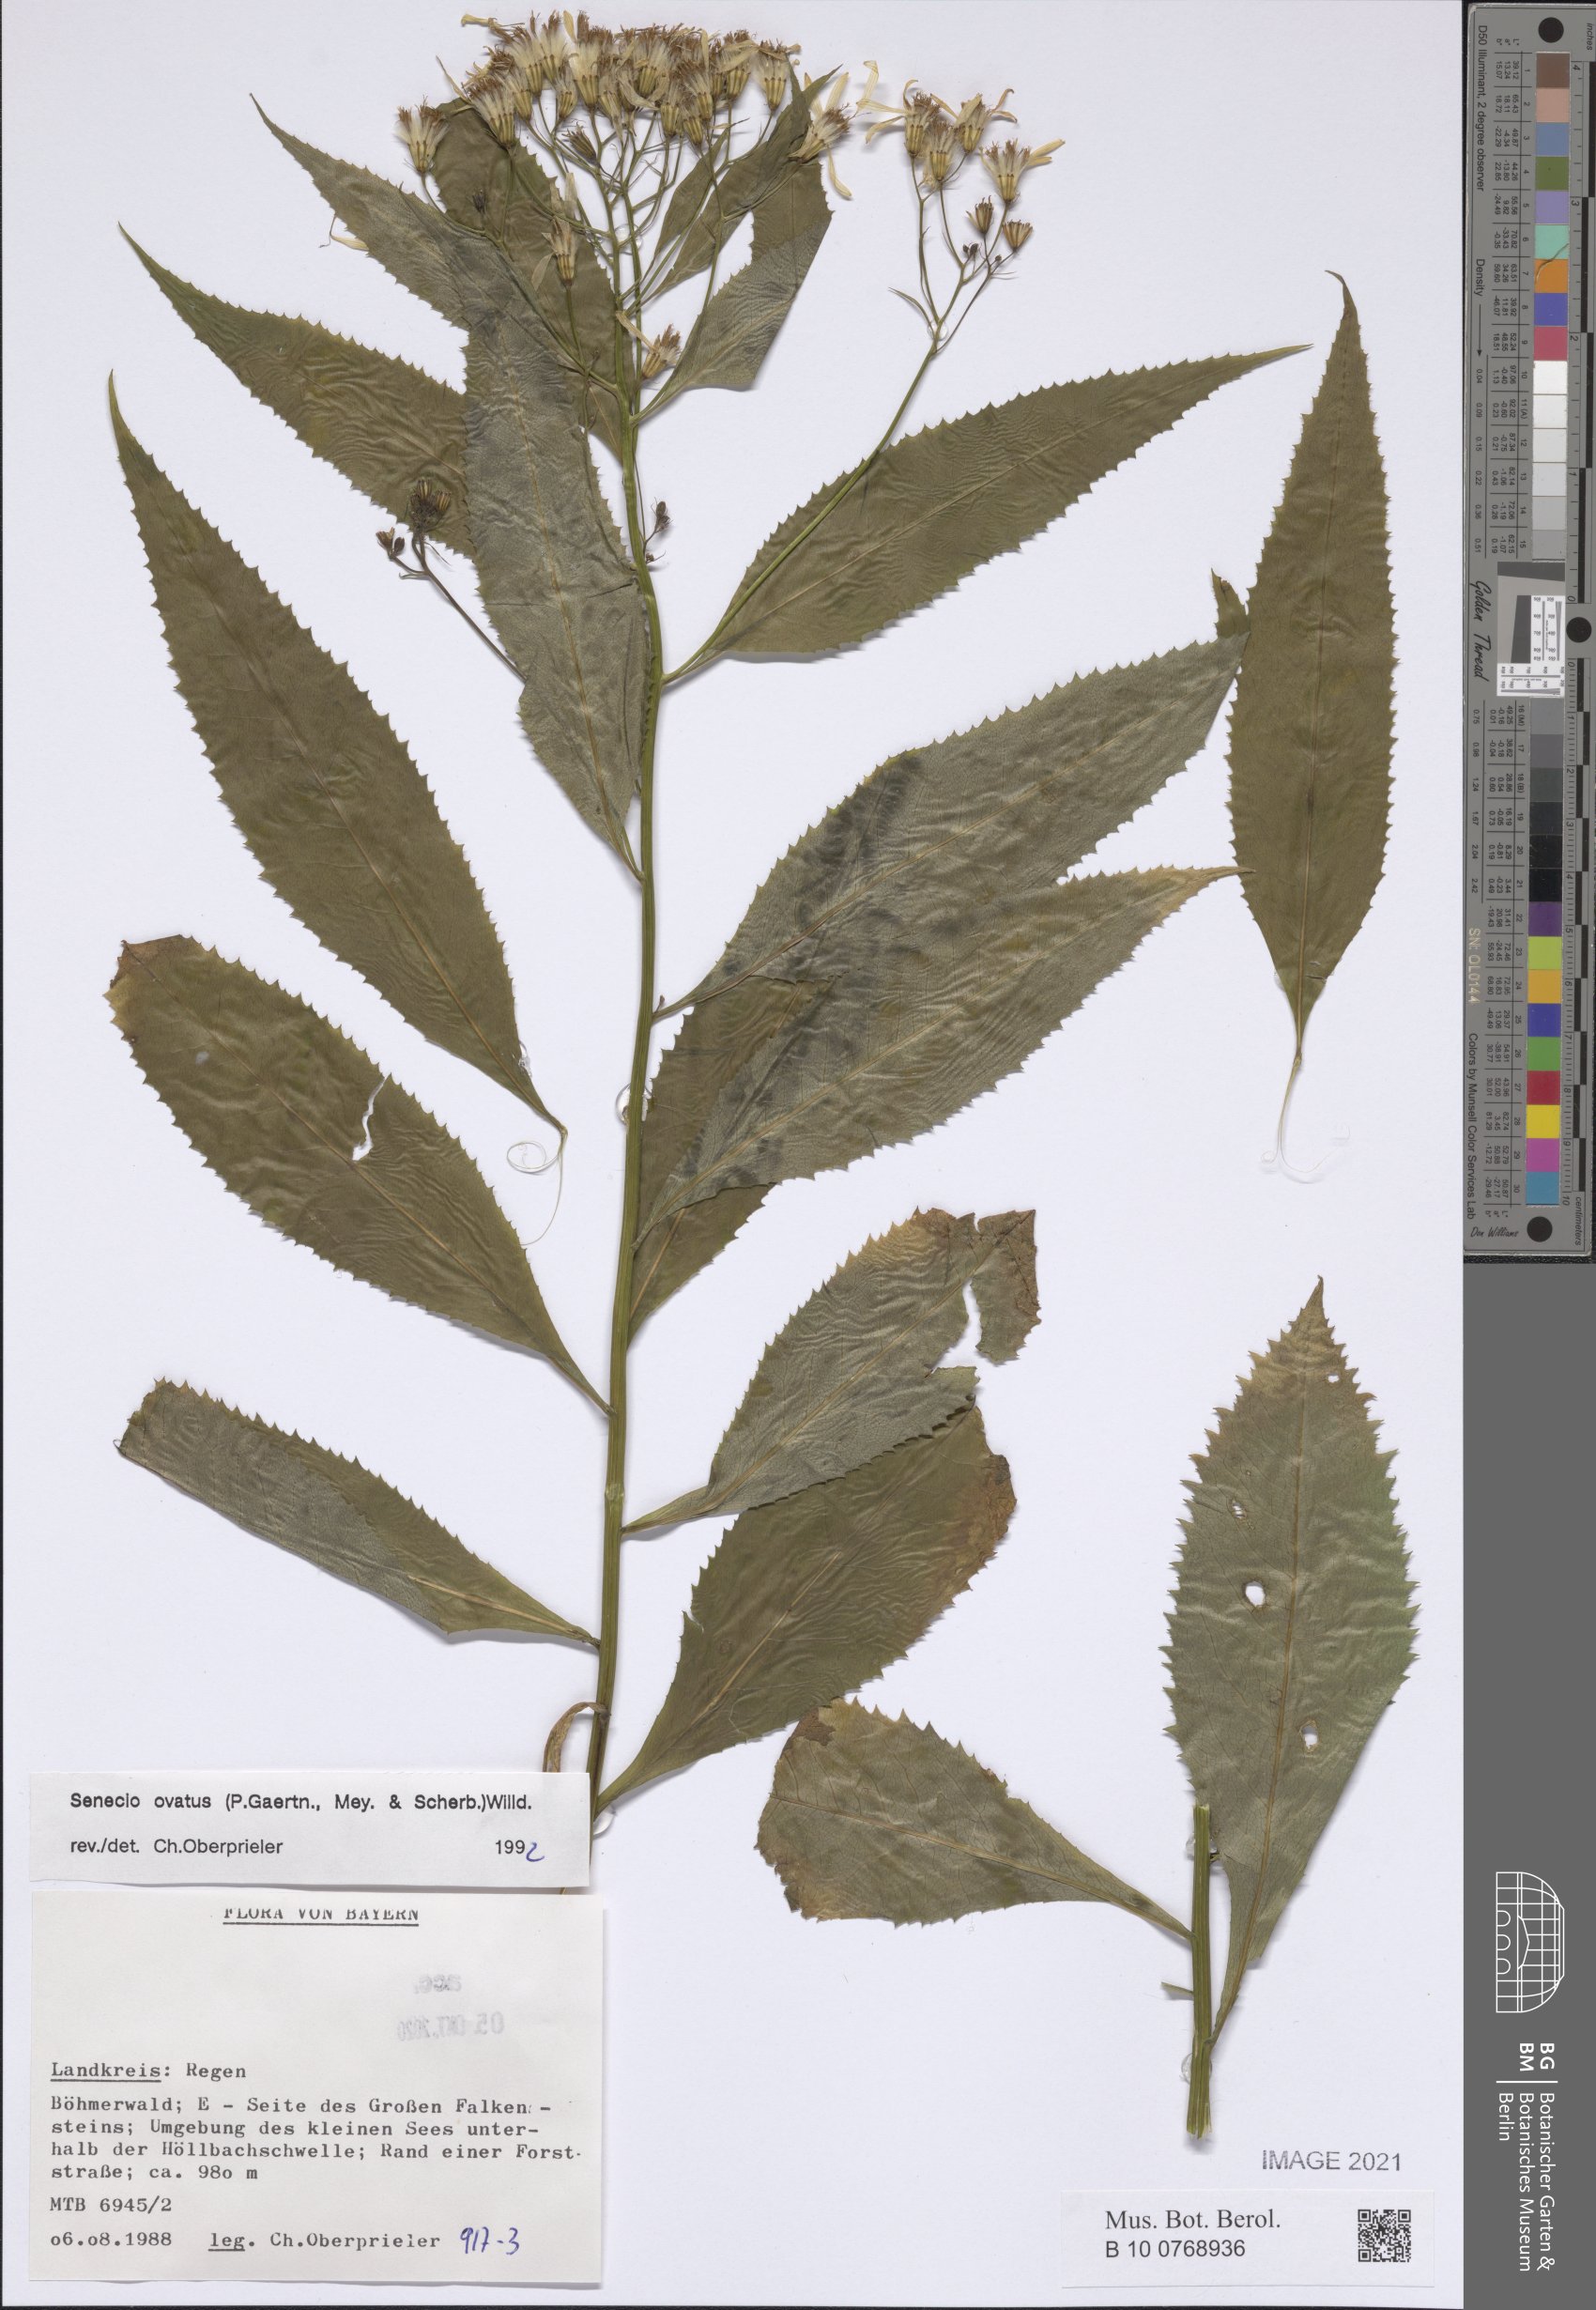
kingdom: Plantae
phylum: Tracheophyta
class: Magnoliopsida
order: Asterales
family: Asteraceae
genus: Senecio
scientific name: Senecio ovatus
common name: Wood ragwort
